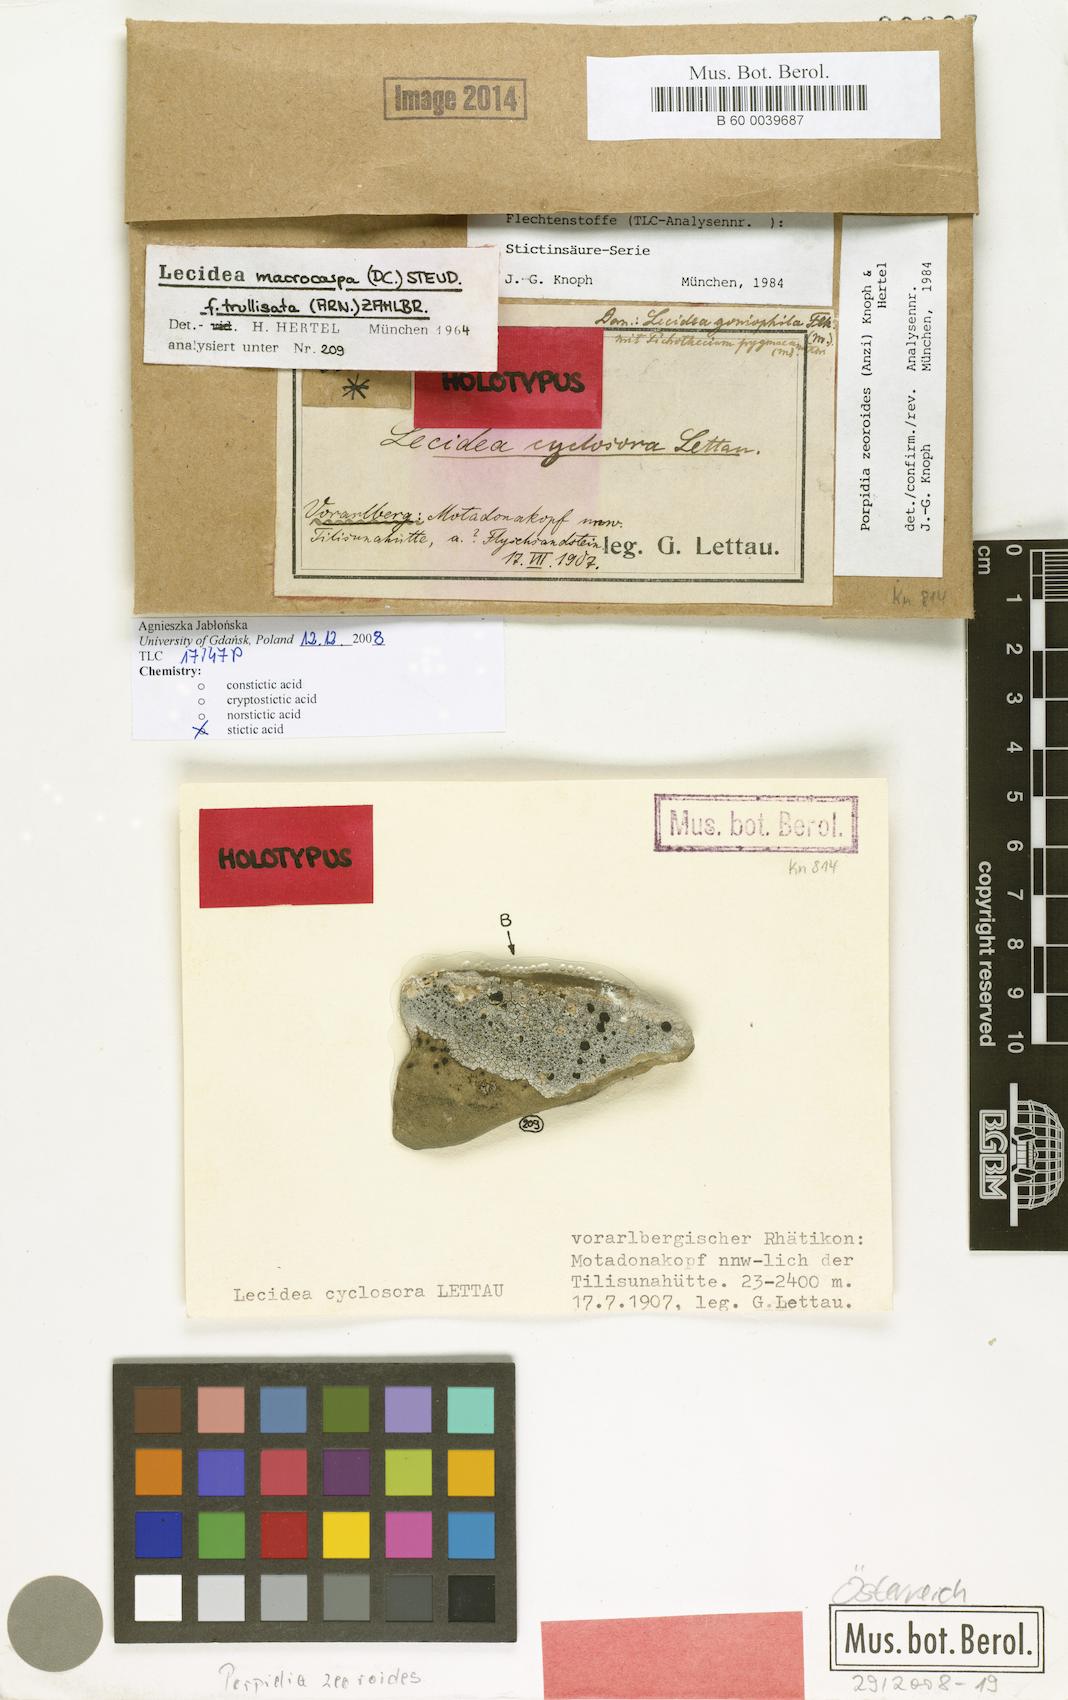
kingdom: Fungi
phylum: Ascomycota
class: Lecanoromycetes
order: Lecideales
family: Lecideaceae
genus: Porpidia
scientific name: Porpidia zeoroides
